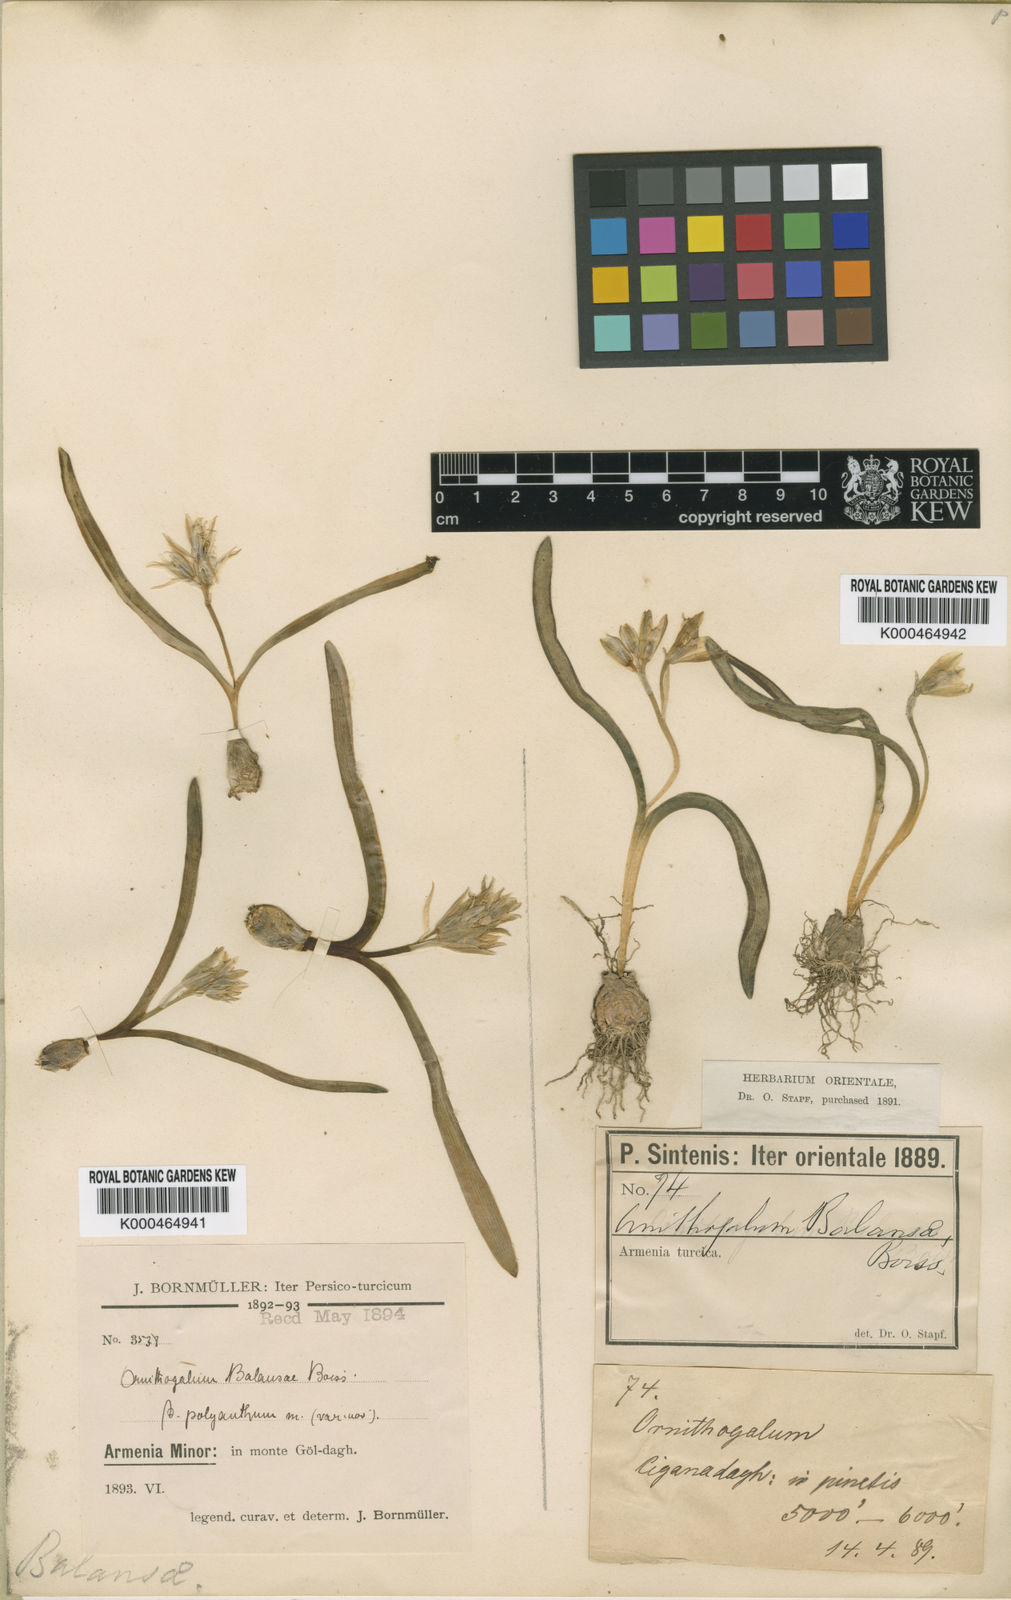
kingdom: Plantae
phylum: Tracheophyta
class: Liliopsida
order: Asparagales
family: Asparagaceae
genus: Ornithogalum
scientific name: Ornithogalum balansae
